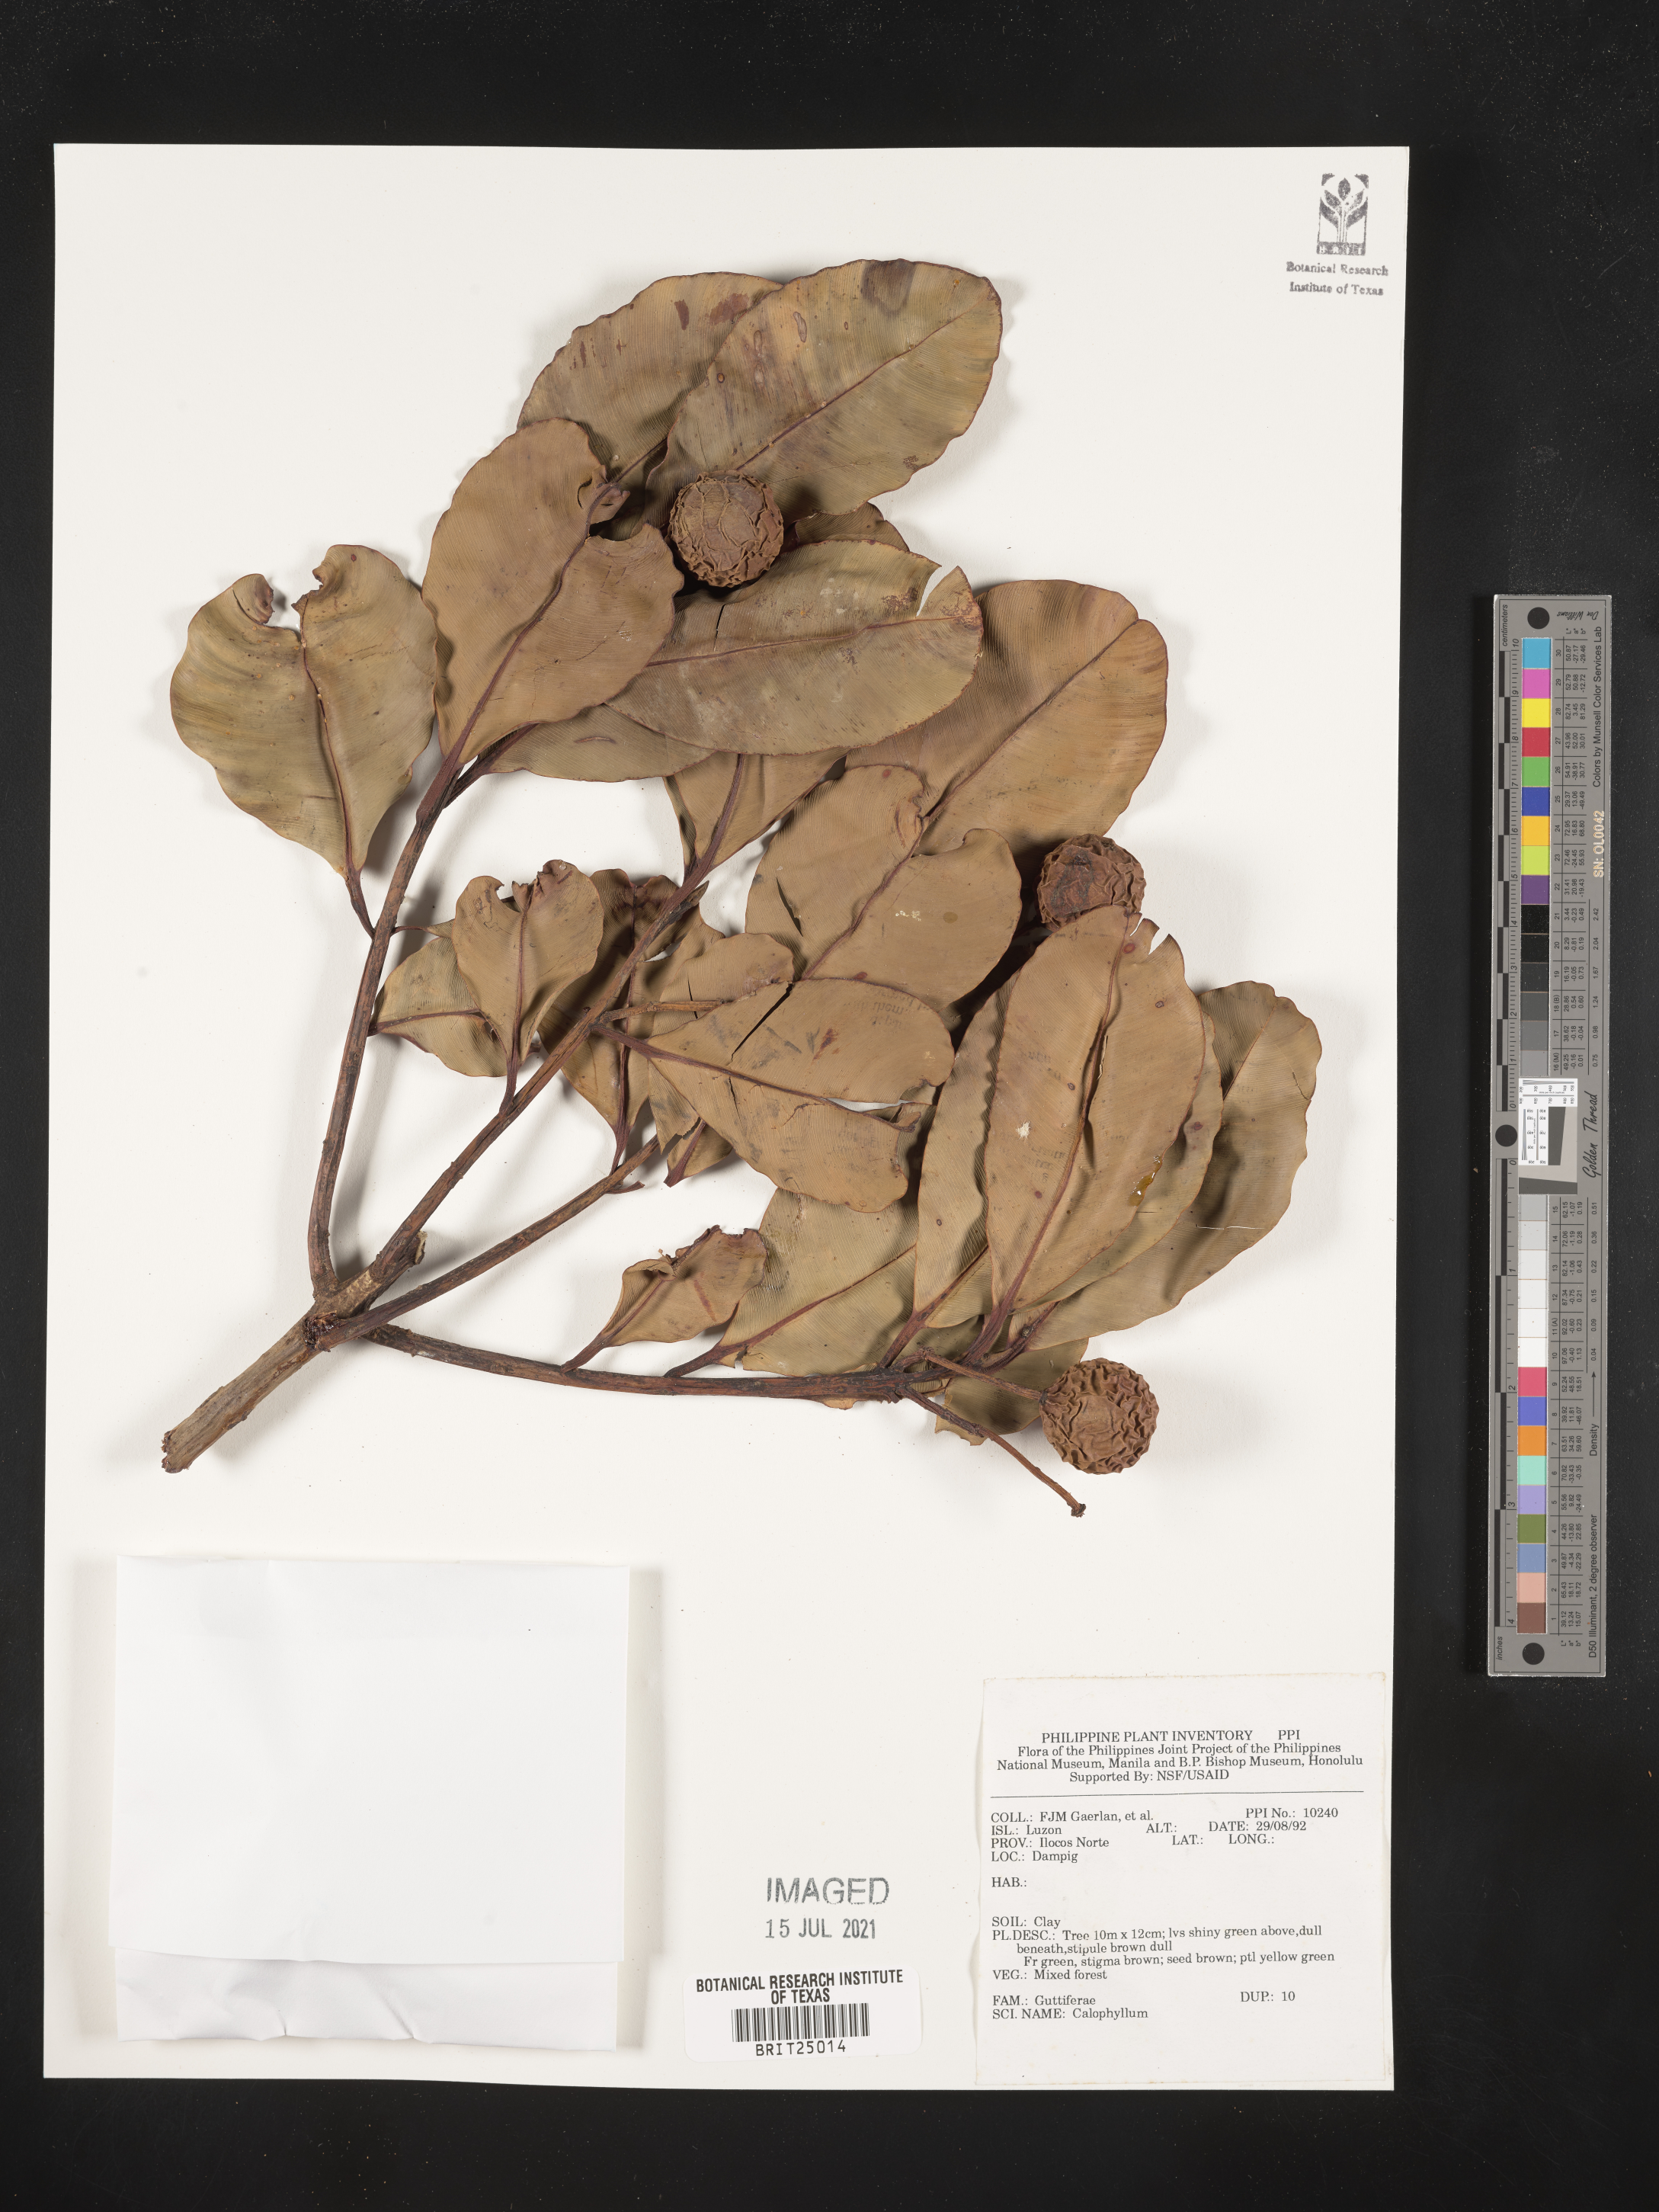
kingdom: Plantae
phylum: Tracheophyta
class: Magnoliopsida
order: Malpighiales
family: Calophyllaceae
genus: Calophyllum
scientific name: Calophyllum
